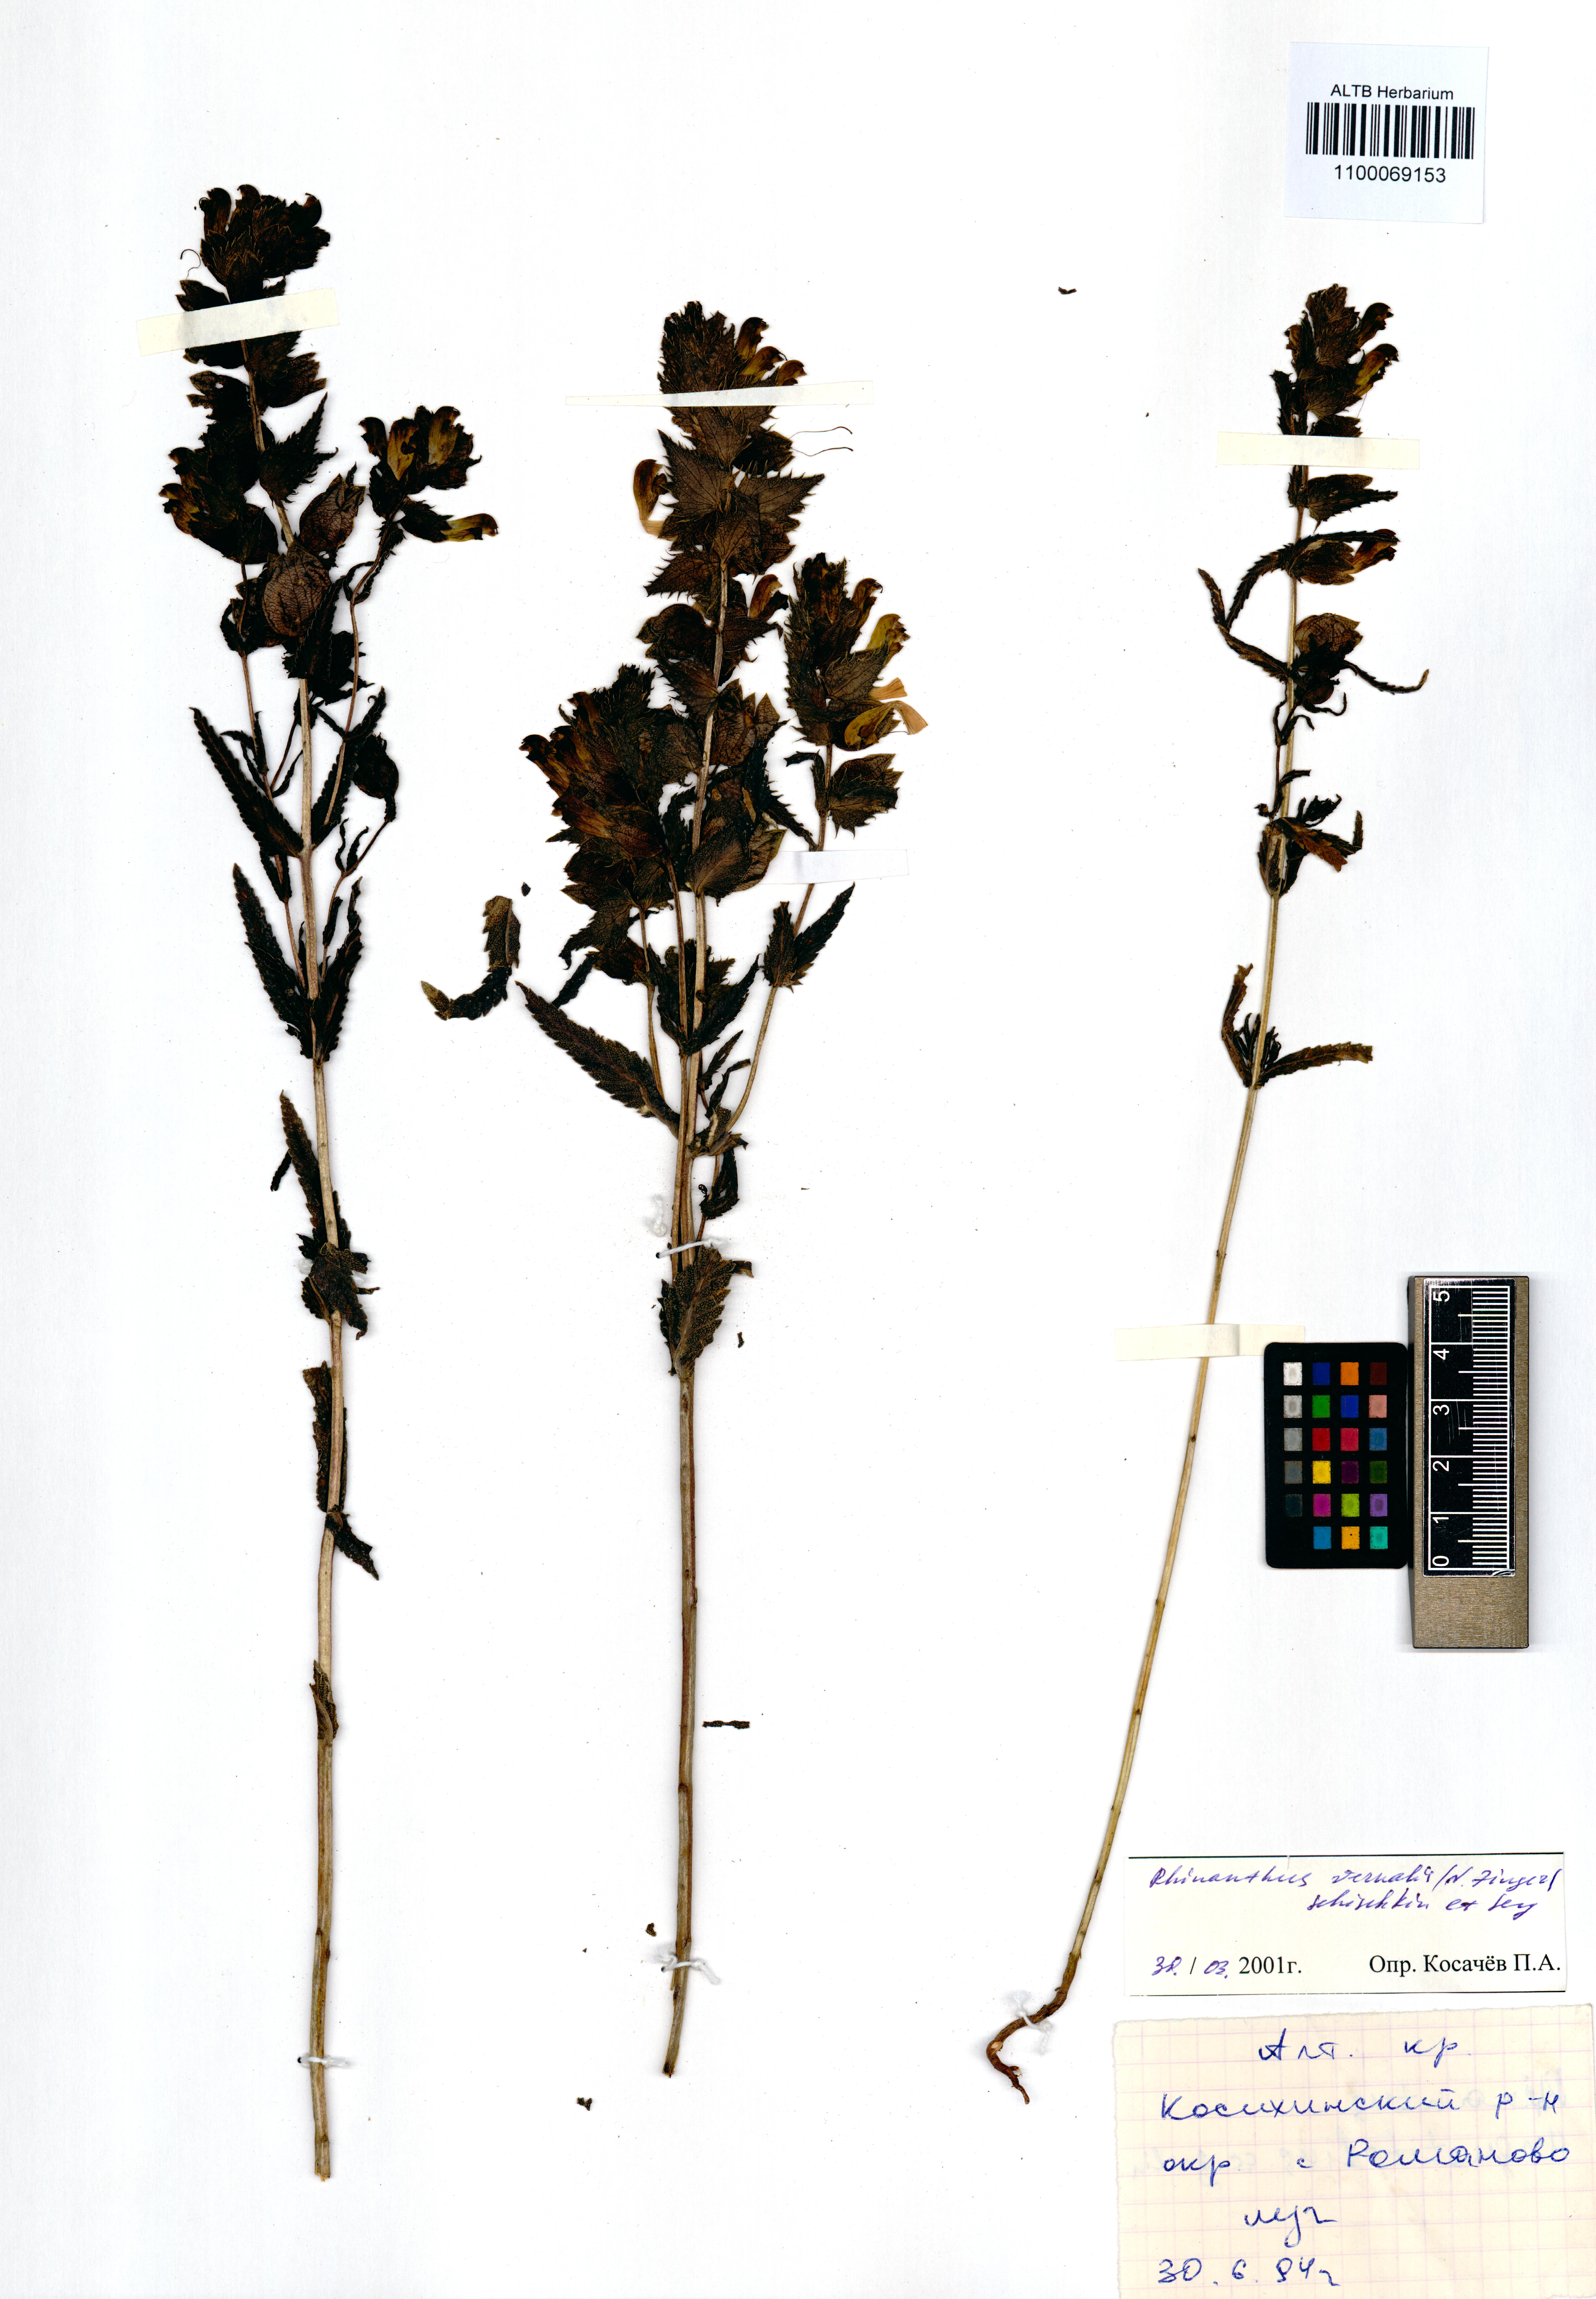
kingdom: Plantae
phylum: Tracheophyta
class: Magnoliopsida
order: Lamiales
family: Orobanchaceae
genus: Rhinanthus
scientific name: Rhinanthus serotinus
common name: Late-flowering yellow rattle
